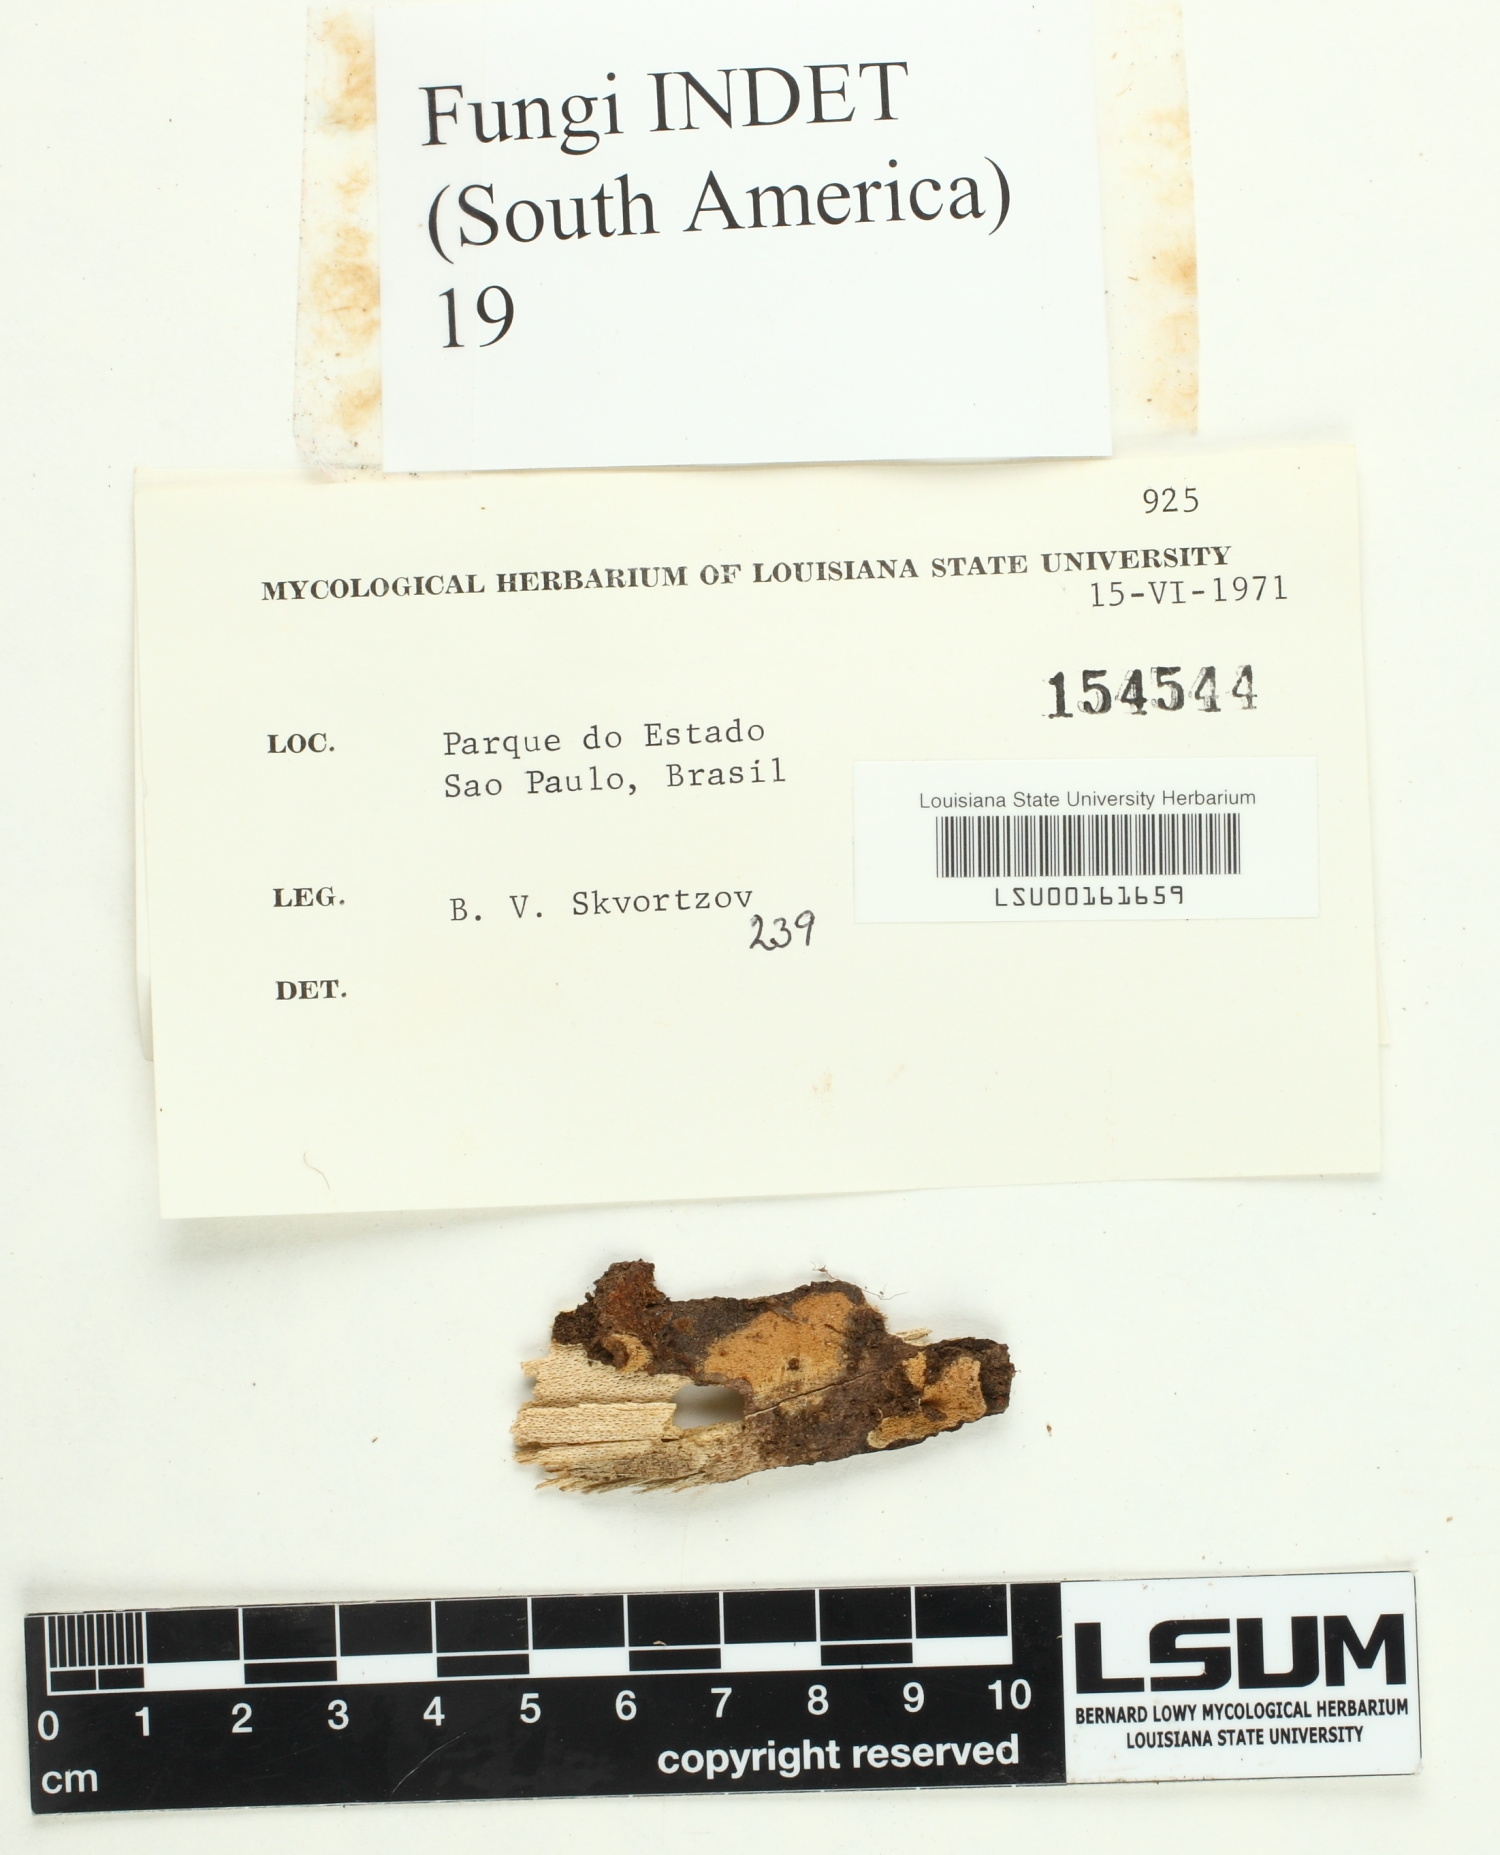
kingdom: Fungi
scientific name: Fungi
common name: Fungi
